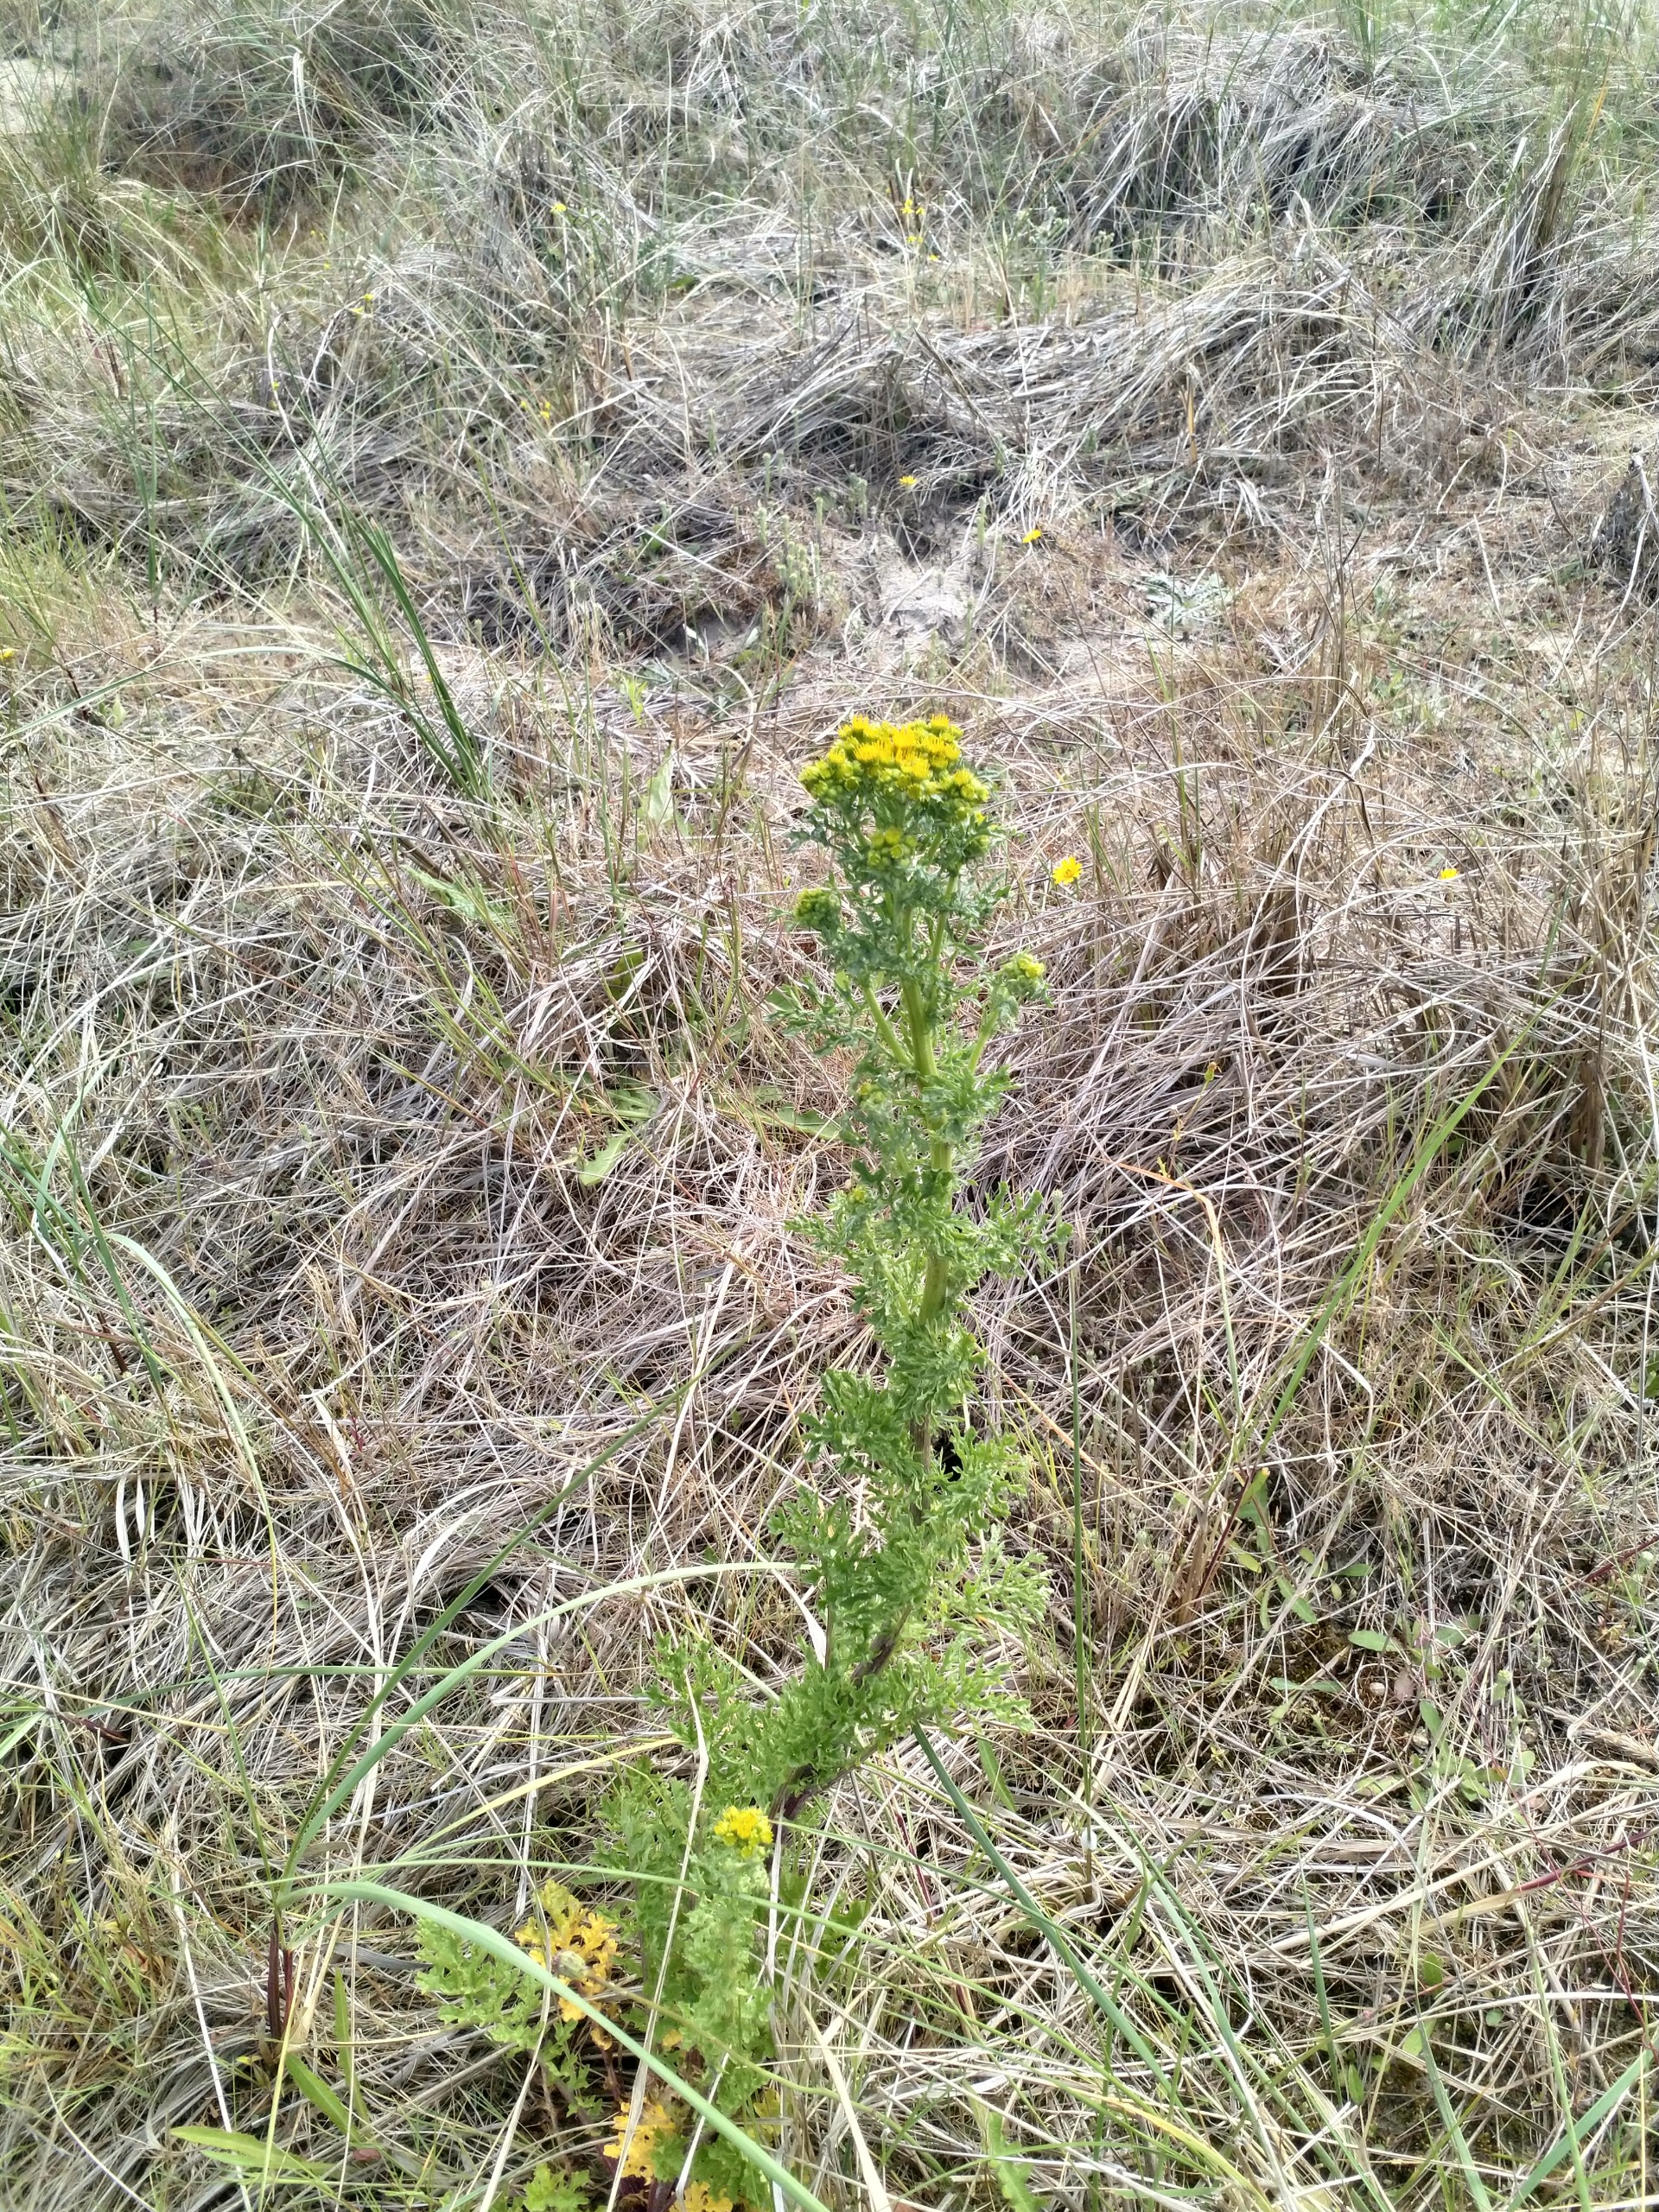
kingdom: Plantae
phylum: Tracheophyta
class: Magnoliopsida
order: Asterales
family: Asteraceae
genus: Jacobaea
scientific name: Jacobaea vulgaris
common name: Eng-brandbæger
